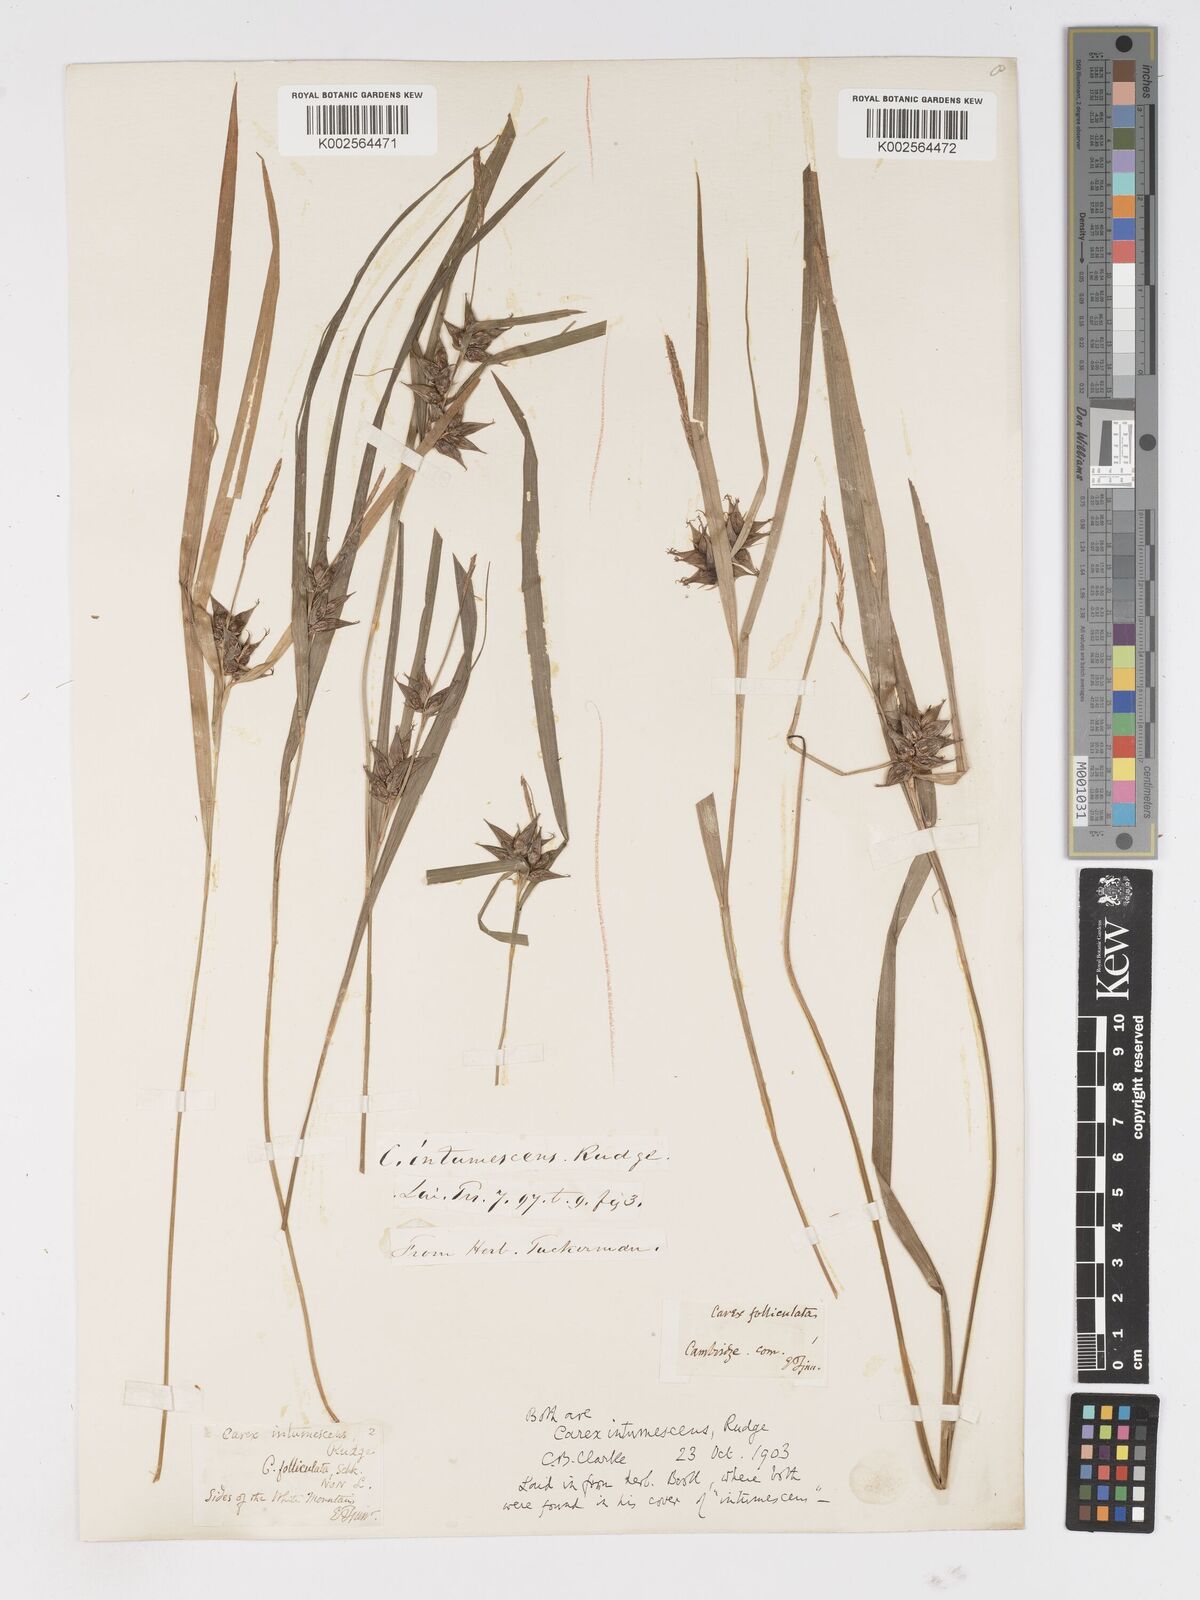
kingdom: Plantae
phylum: Tracheophyta
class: Liliopsida
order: Poales
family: Cyperaceae
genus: Carex
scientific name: Carex intumescens
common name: Greater bladder sedge
